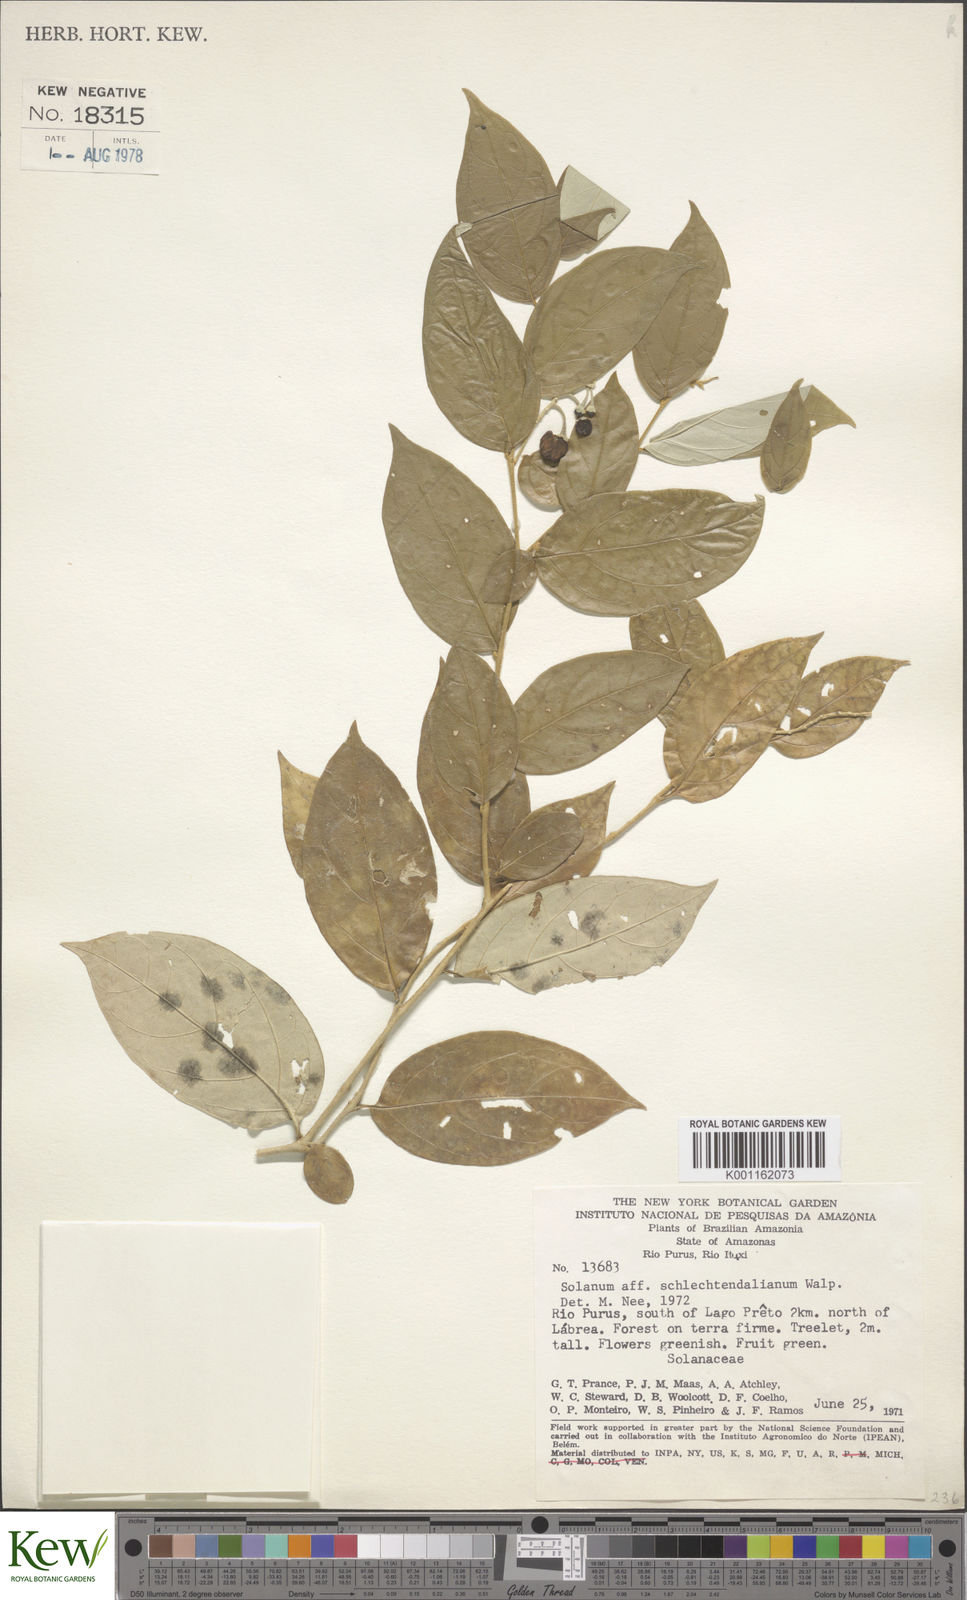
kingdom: Plantae
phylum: Tracheophyta
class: Magnoliopsida
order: Solanales
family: Solanaceae
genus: Solanum
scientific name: Solanum schlechtendalianum
